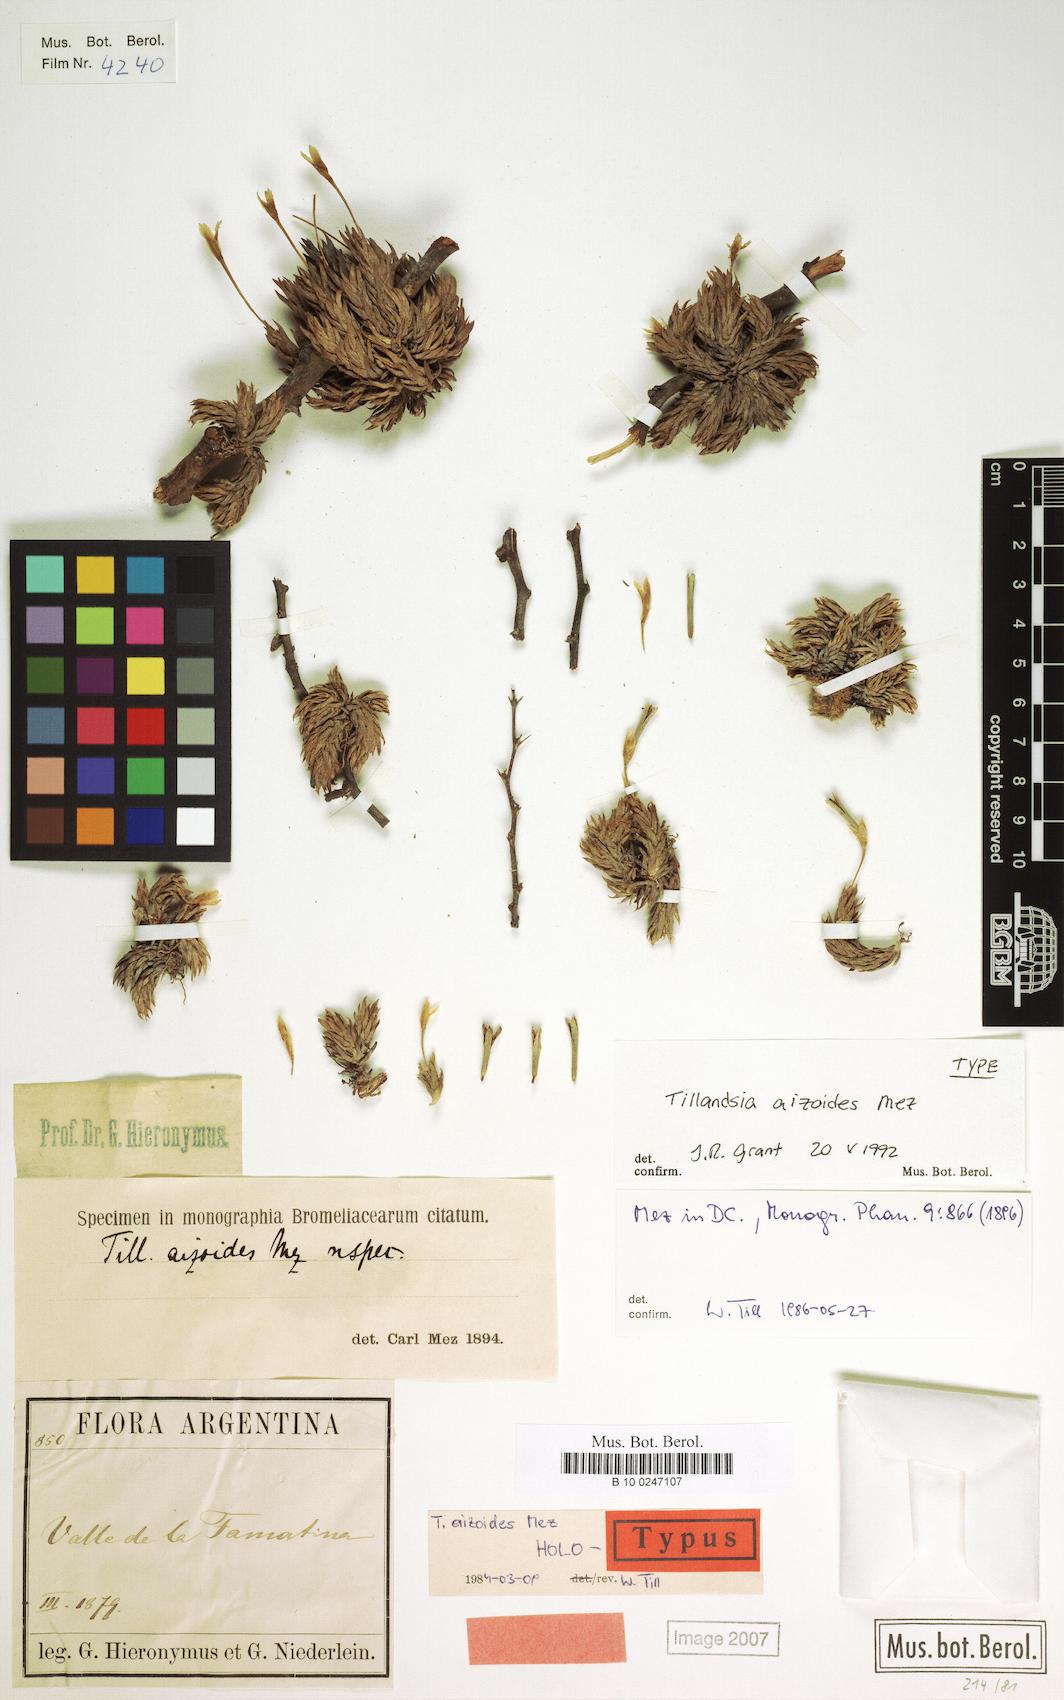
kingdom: Plantae
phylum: Tracheophyta
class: Liliopsida
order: Poales
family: Bromeliaceae
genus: Tillandsia
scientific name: Tillandsia aizoides
